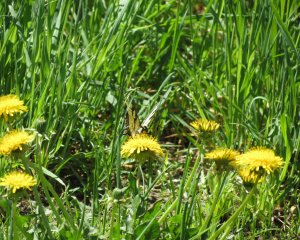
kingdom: Animalia
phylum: Arthropoda
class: Insecta
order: Lepidoptera
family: Papilionidae
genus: Pterourus
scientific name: Pterourus canadensis
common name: Canadian Tiger Swallowtail
